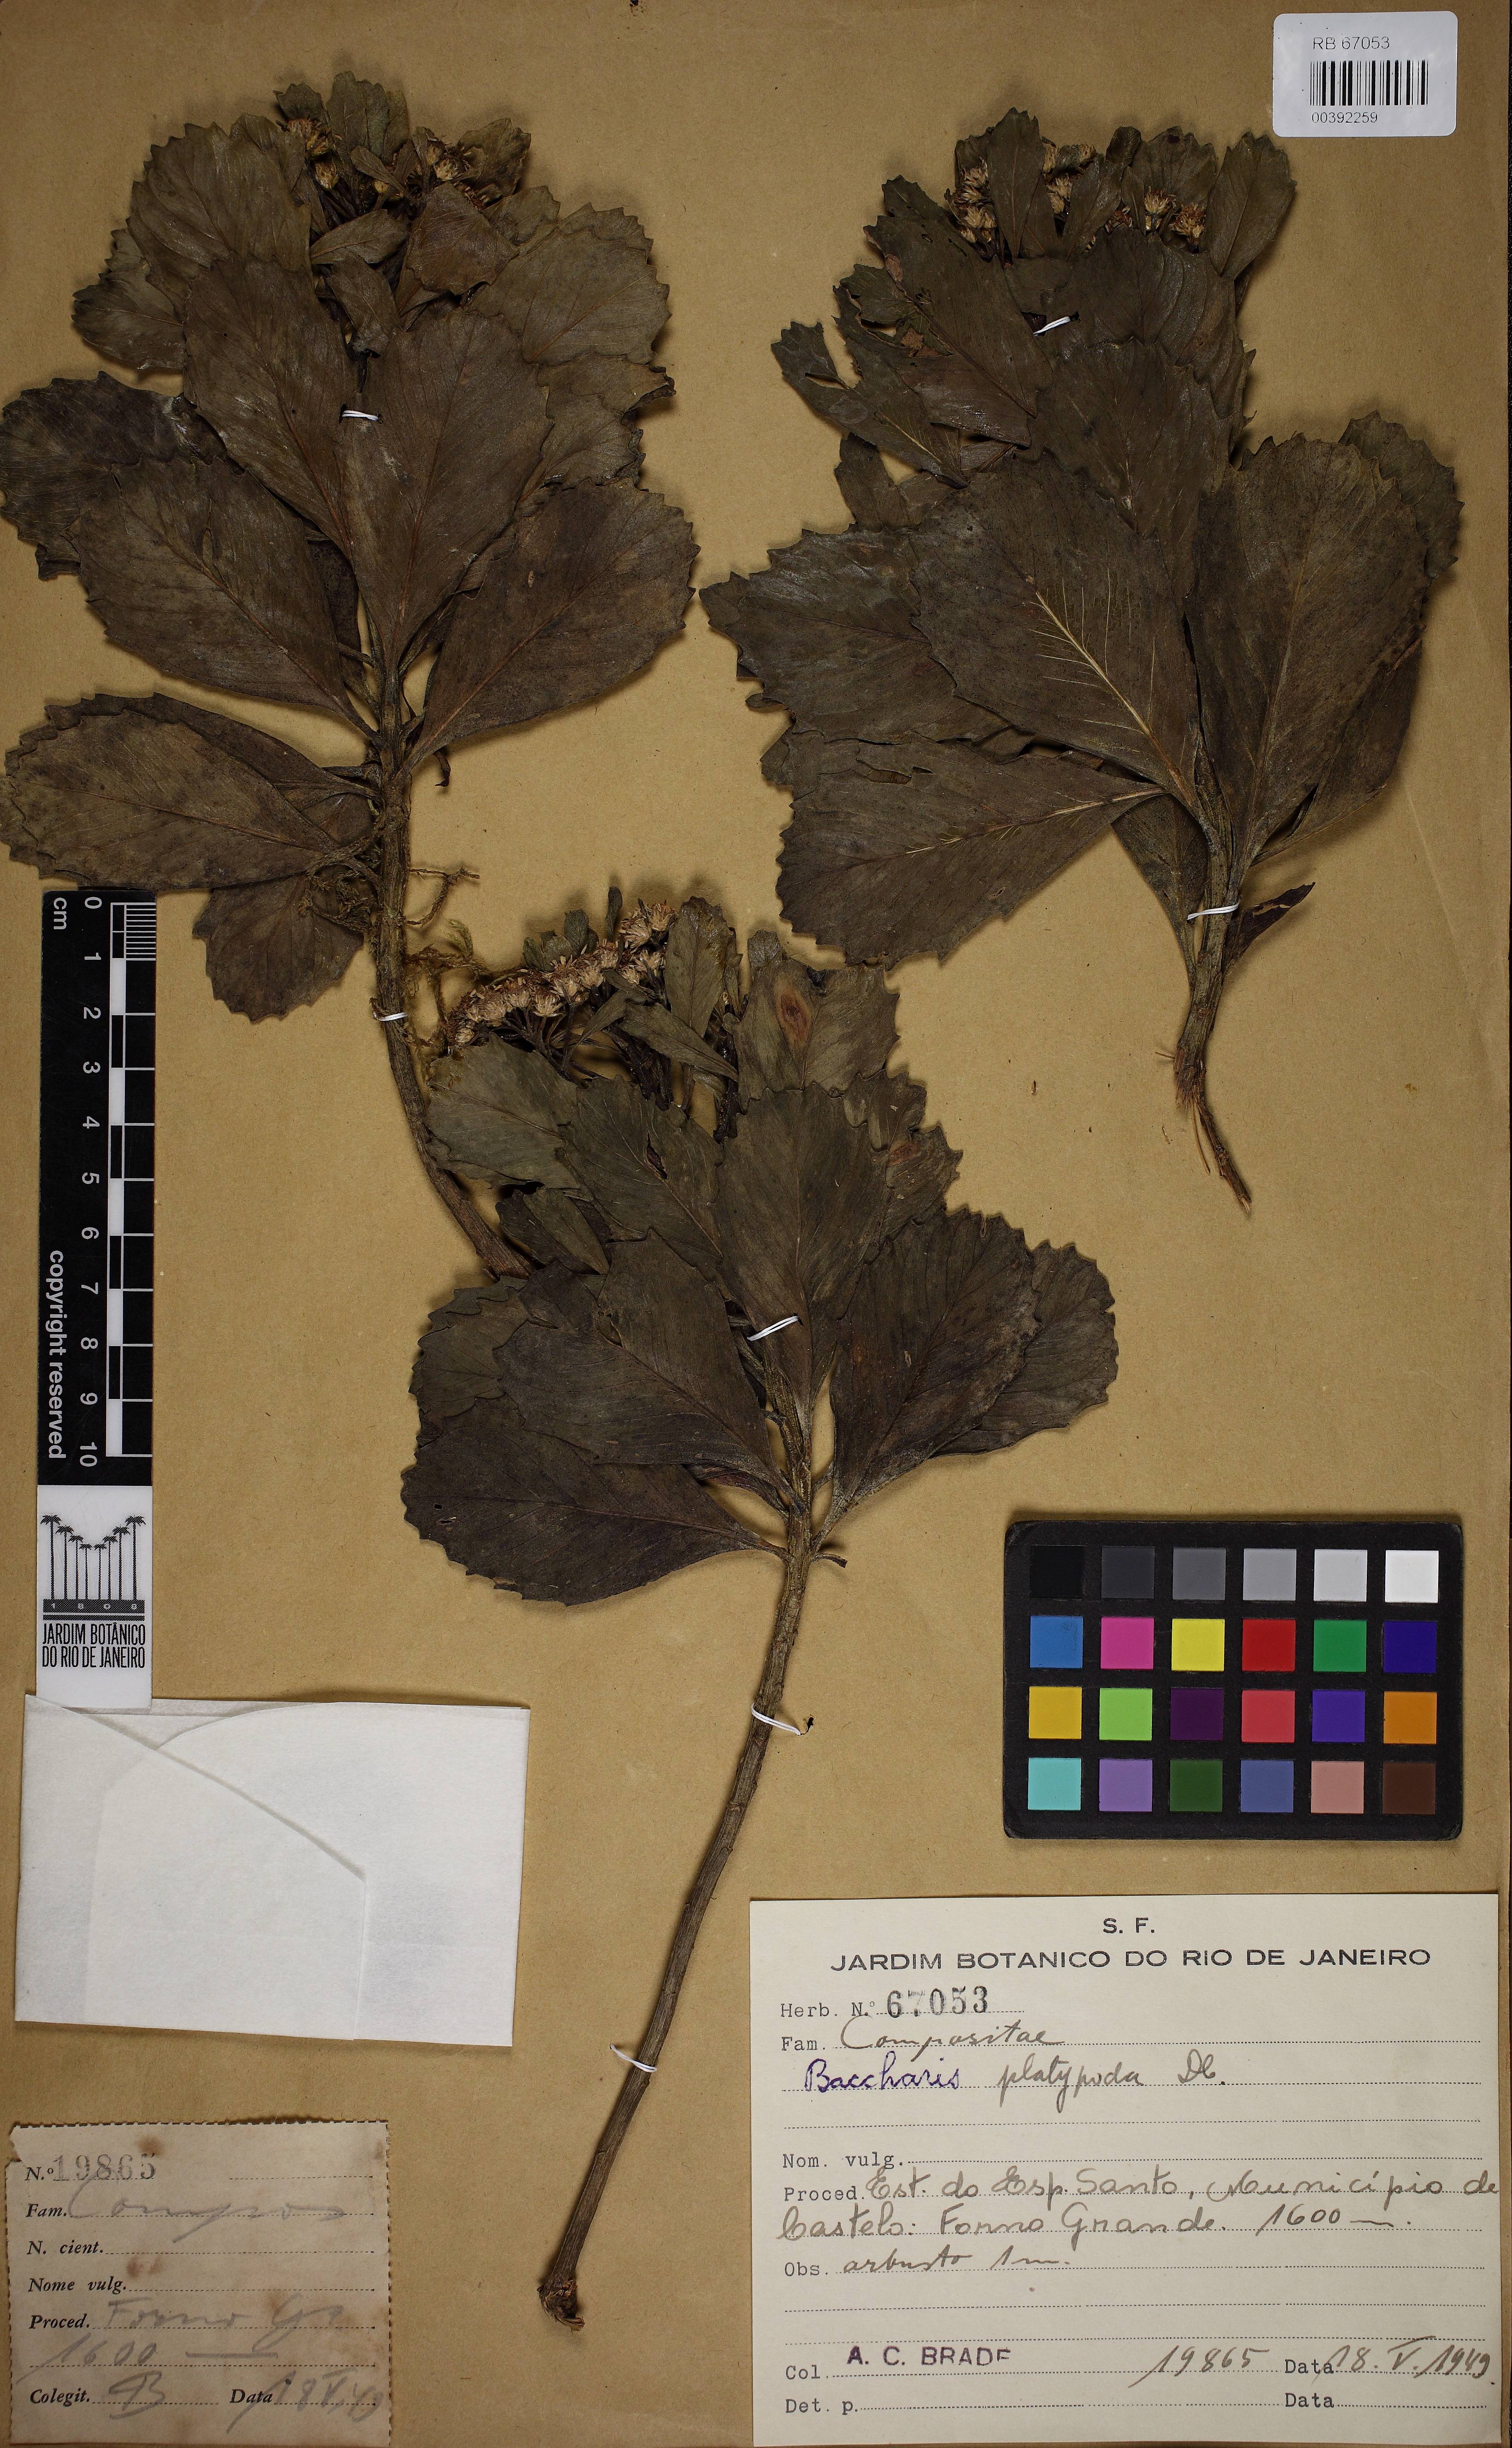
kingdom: Plantae
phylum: Tracheophyta
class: Magnoliopsida
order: Asterales
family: Asteraceae
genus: Baccharis
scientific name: Baccharis platypoda
